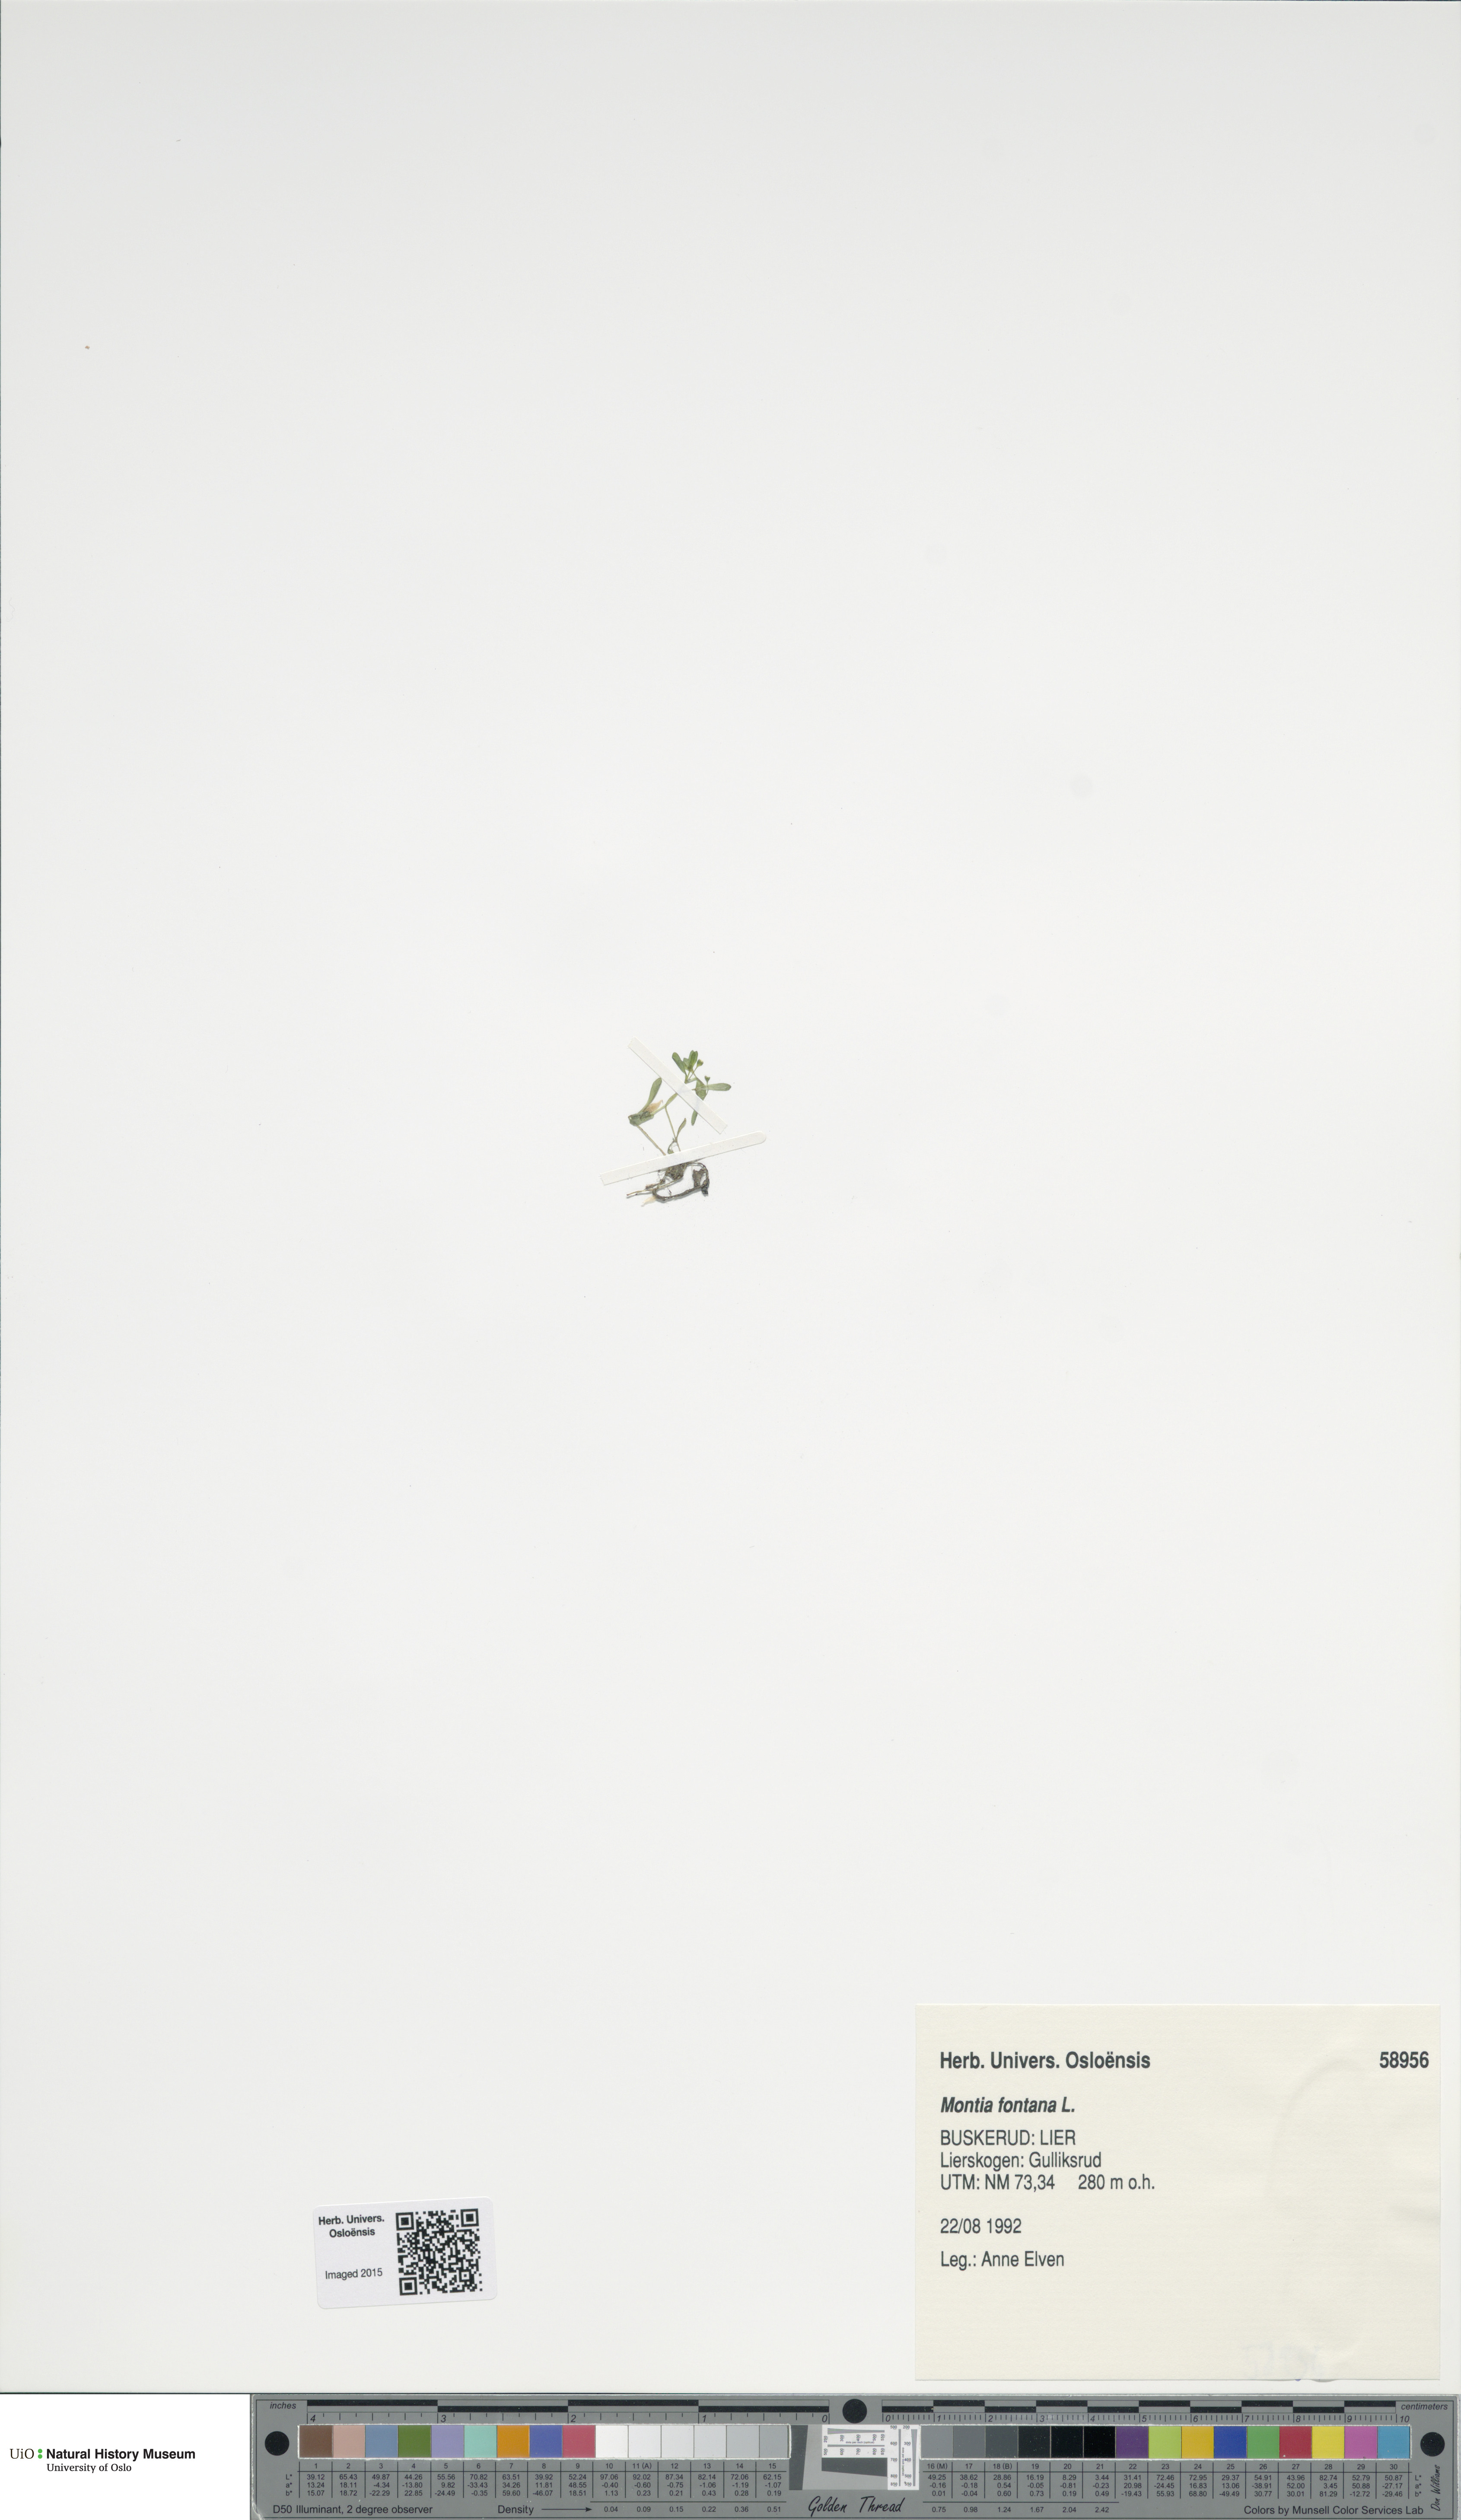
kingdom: Plantae
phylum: Tracheophyta
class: Magnoliopsida
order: Caryophyllales
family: Montiaceae
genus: Montia
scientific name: Montia fontana
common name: Blinks
